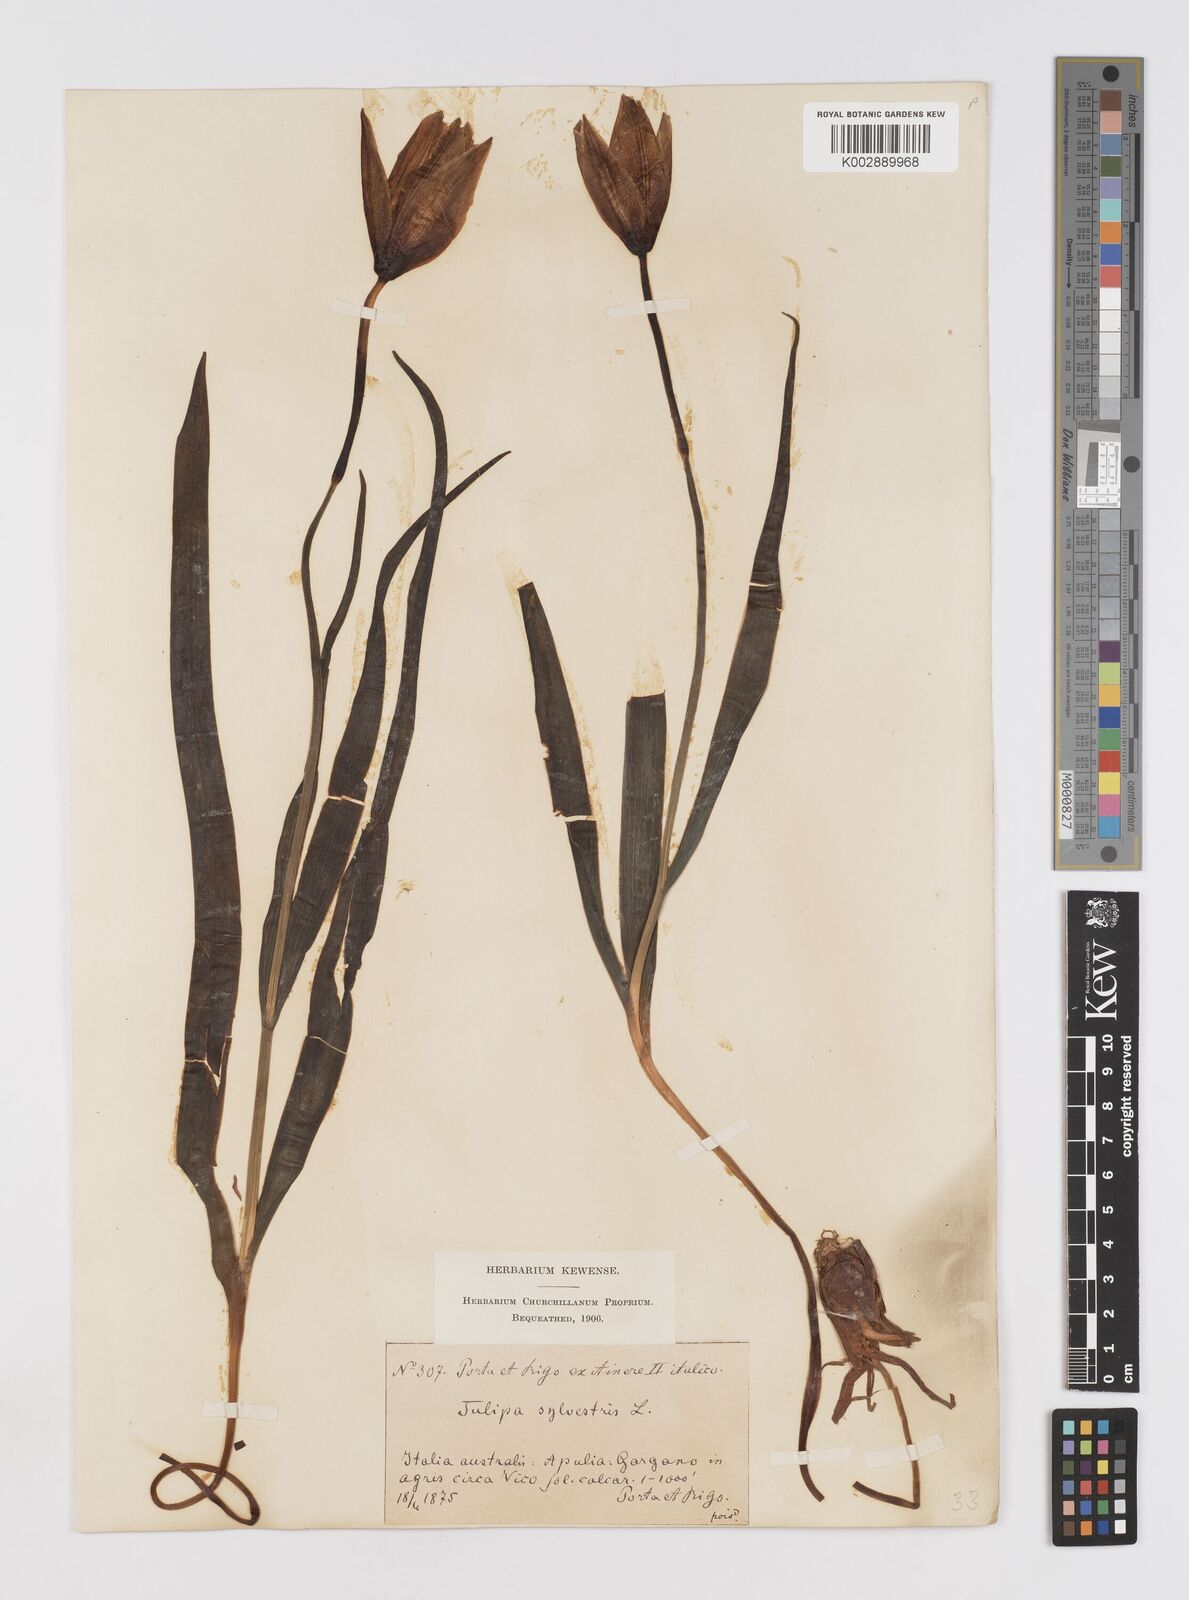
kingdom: Plantae
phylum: Tracheophyta
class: Liliopsida
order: Liliales
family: Liliaceae
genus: Tulipa
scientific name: Tulipa sylvestris
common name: Wild tulip
